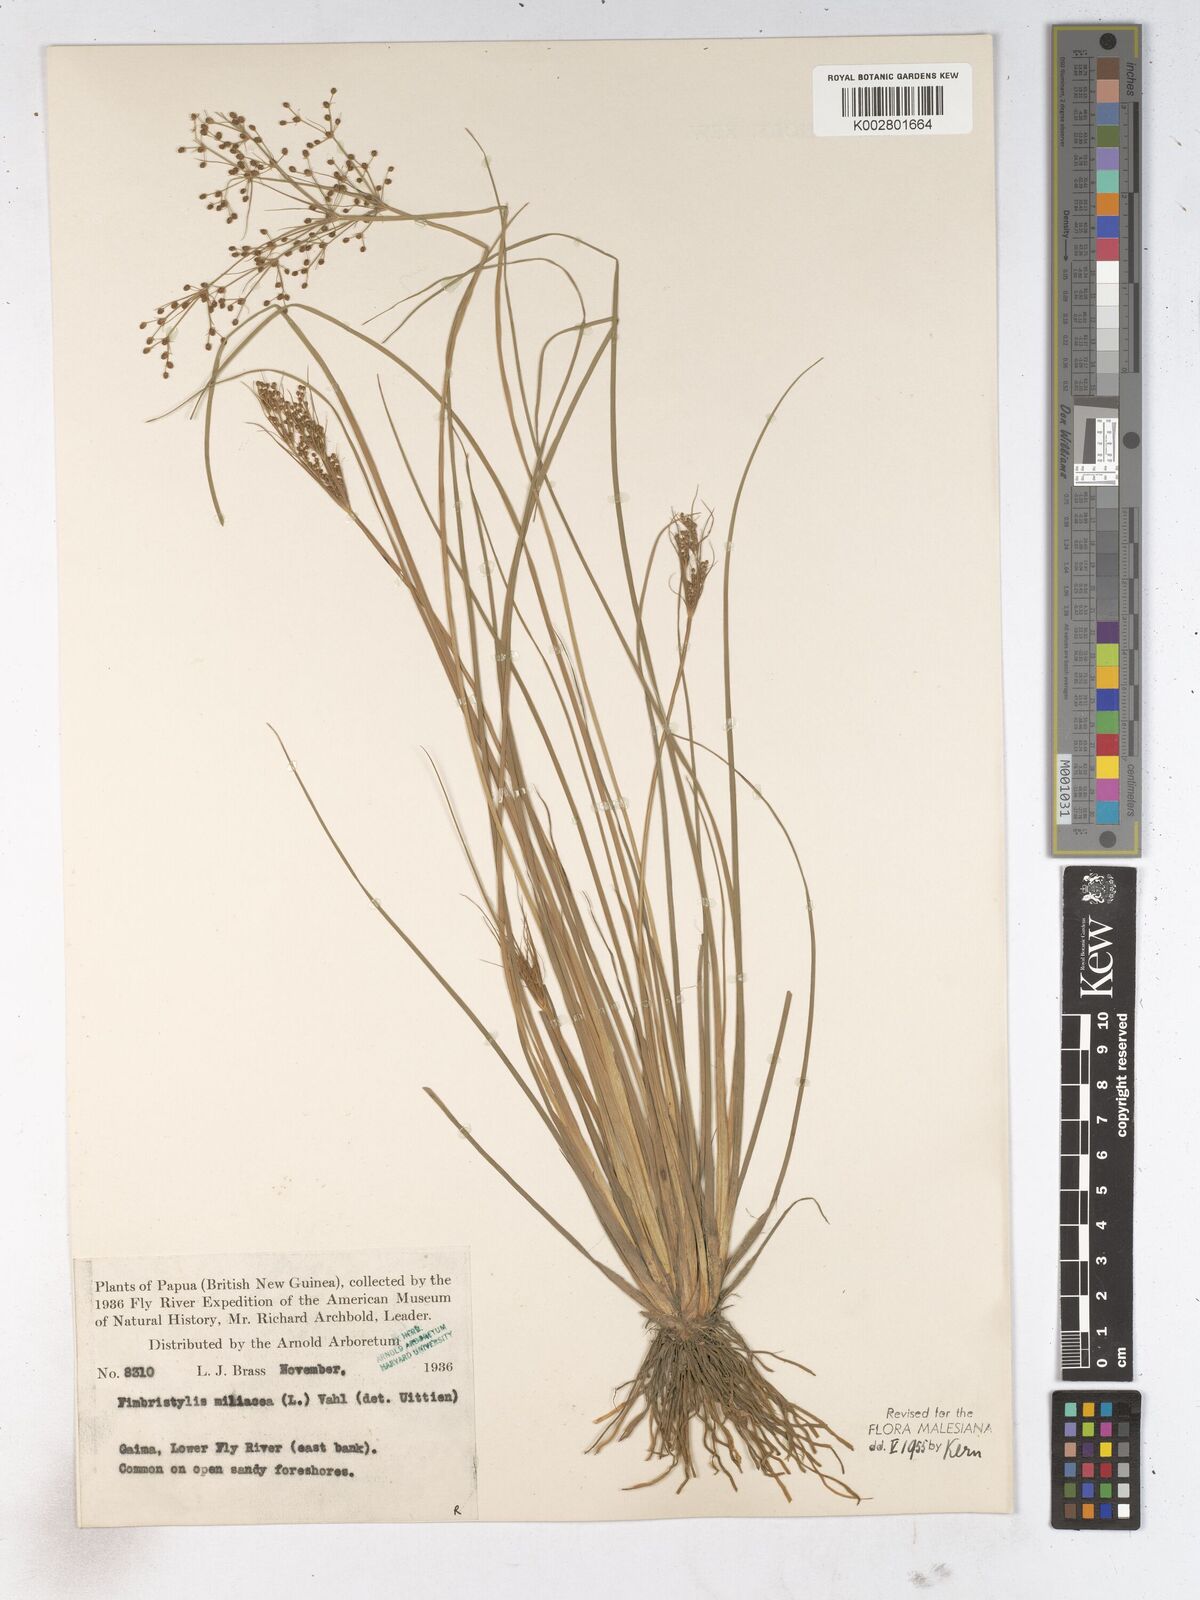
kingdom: Plantae
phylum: Tracheophyta
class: Liliopsida
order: Poales
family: Cyperaceae
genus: Fimbristylis
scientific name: Fimbristylis littoralis
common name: Fimbry
